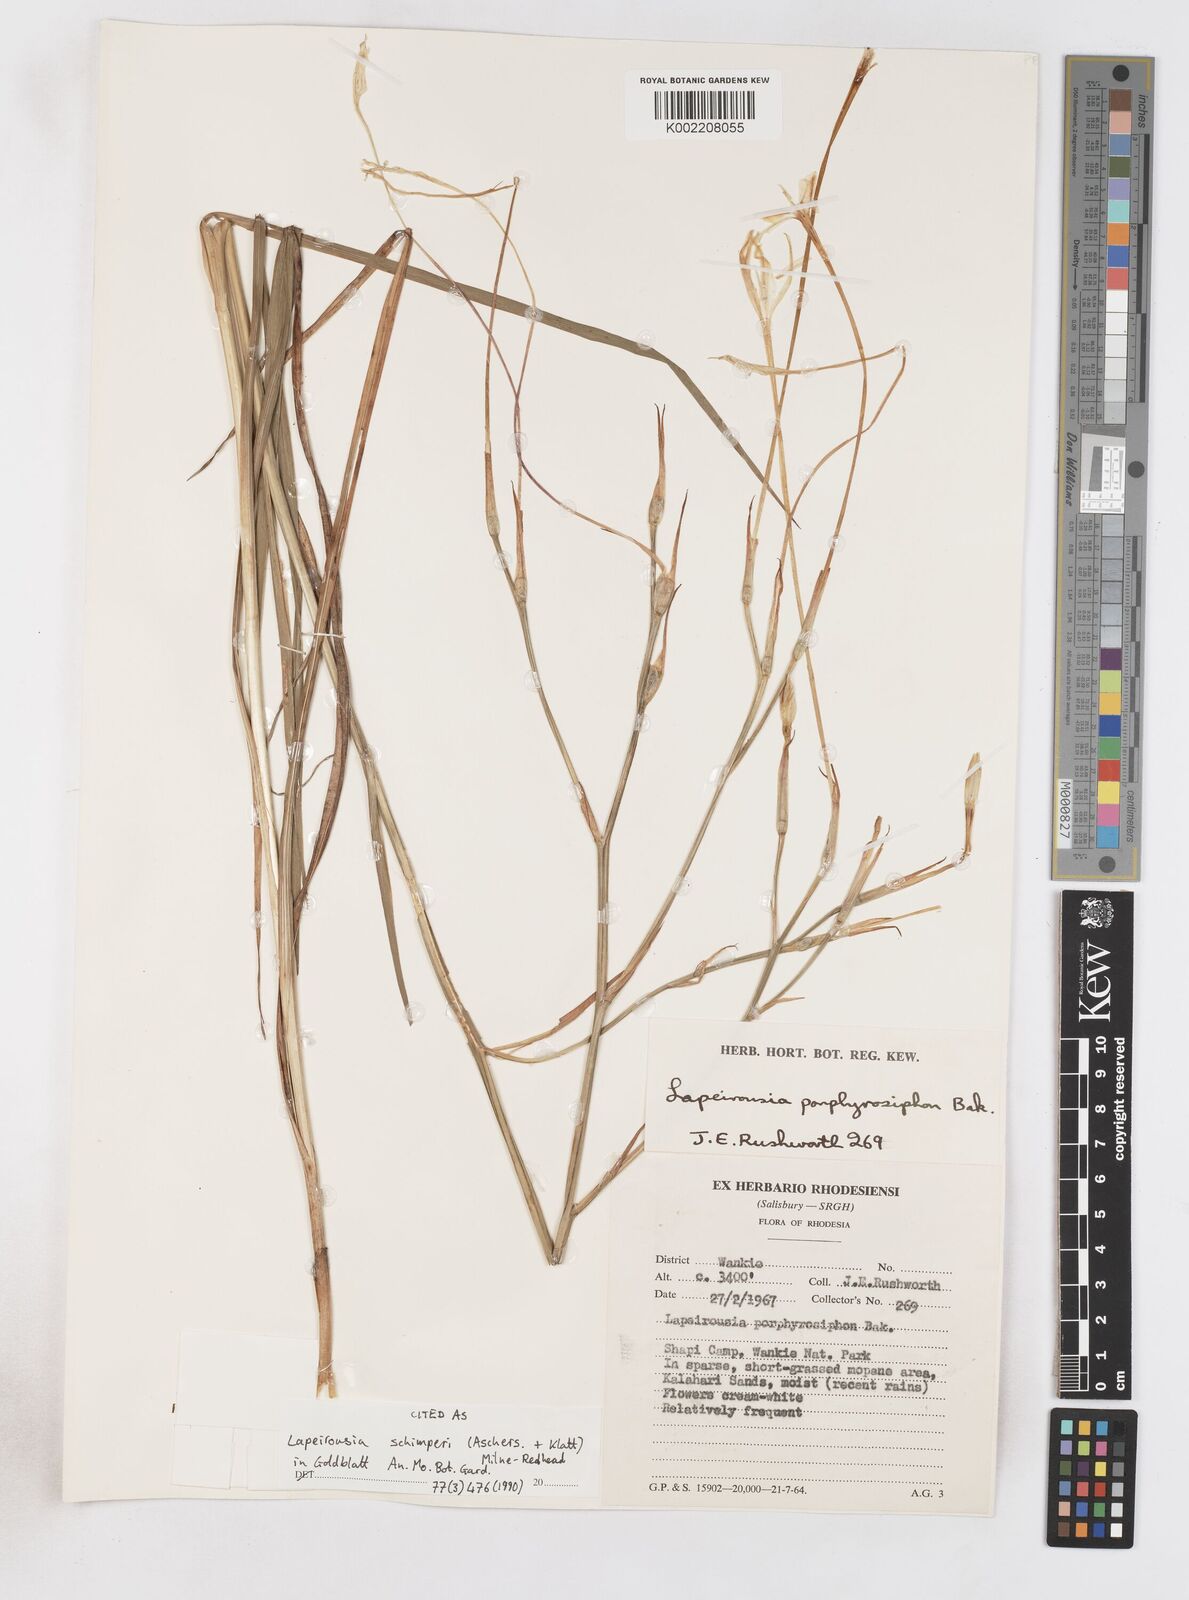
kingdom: Plantae
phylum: Tracheophyta
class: Liliopsida
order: Asparagales
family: Iridaceae
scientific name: Iridaceae
